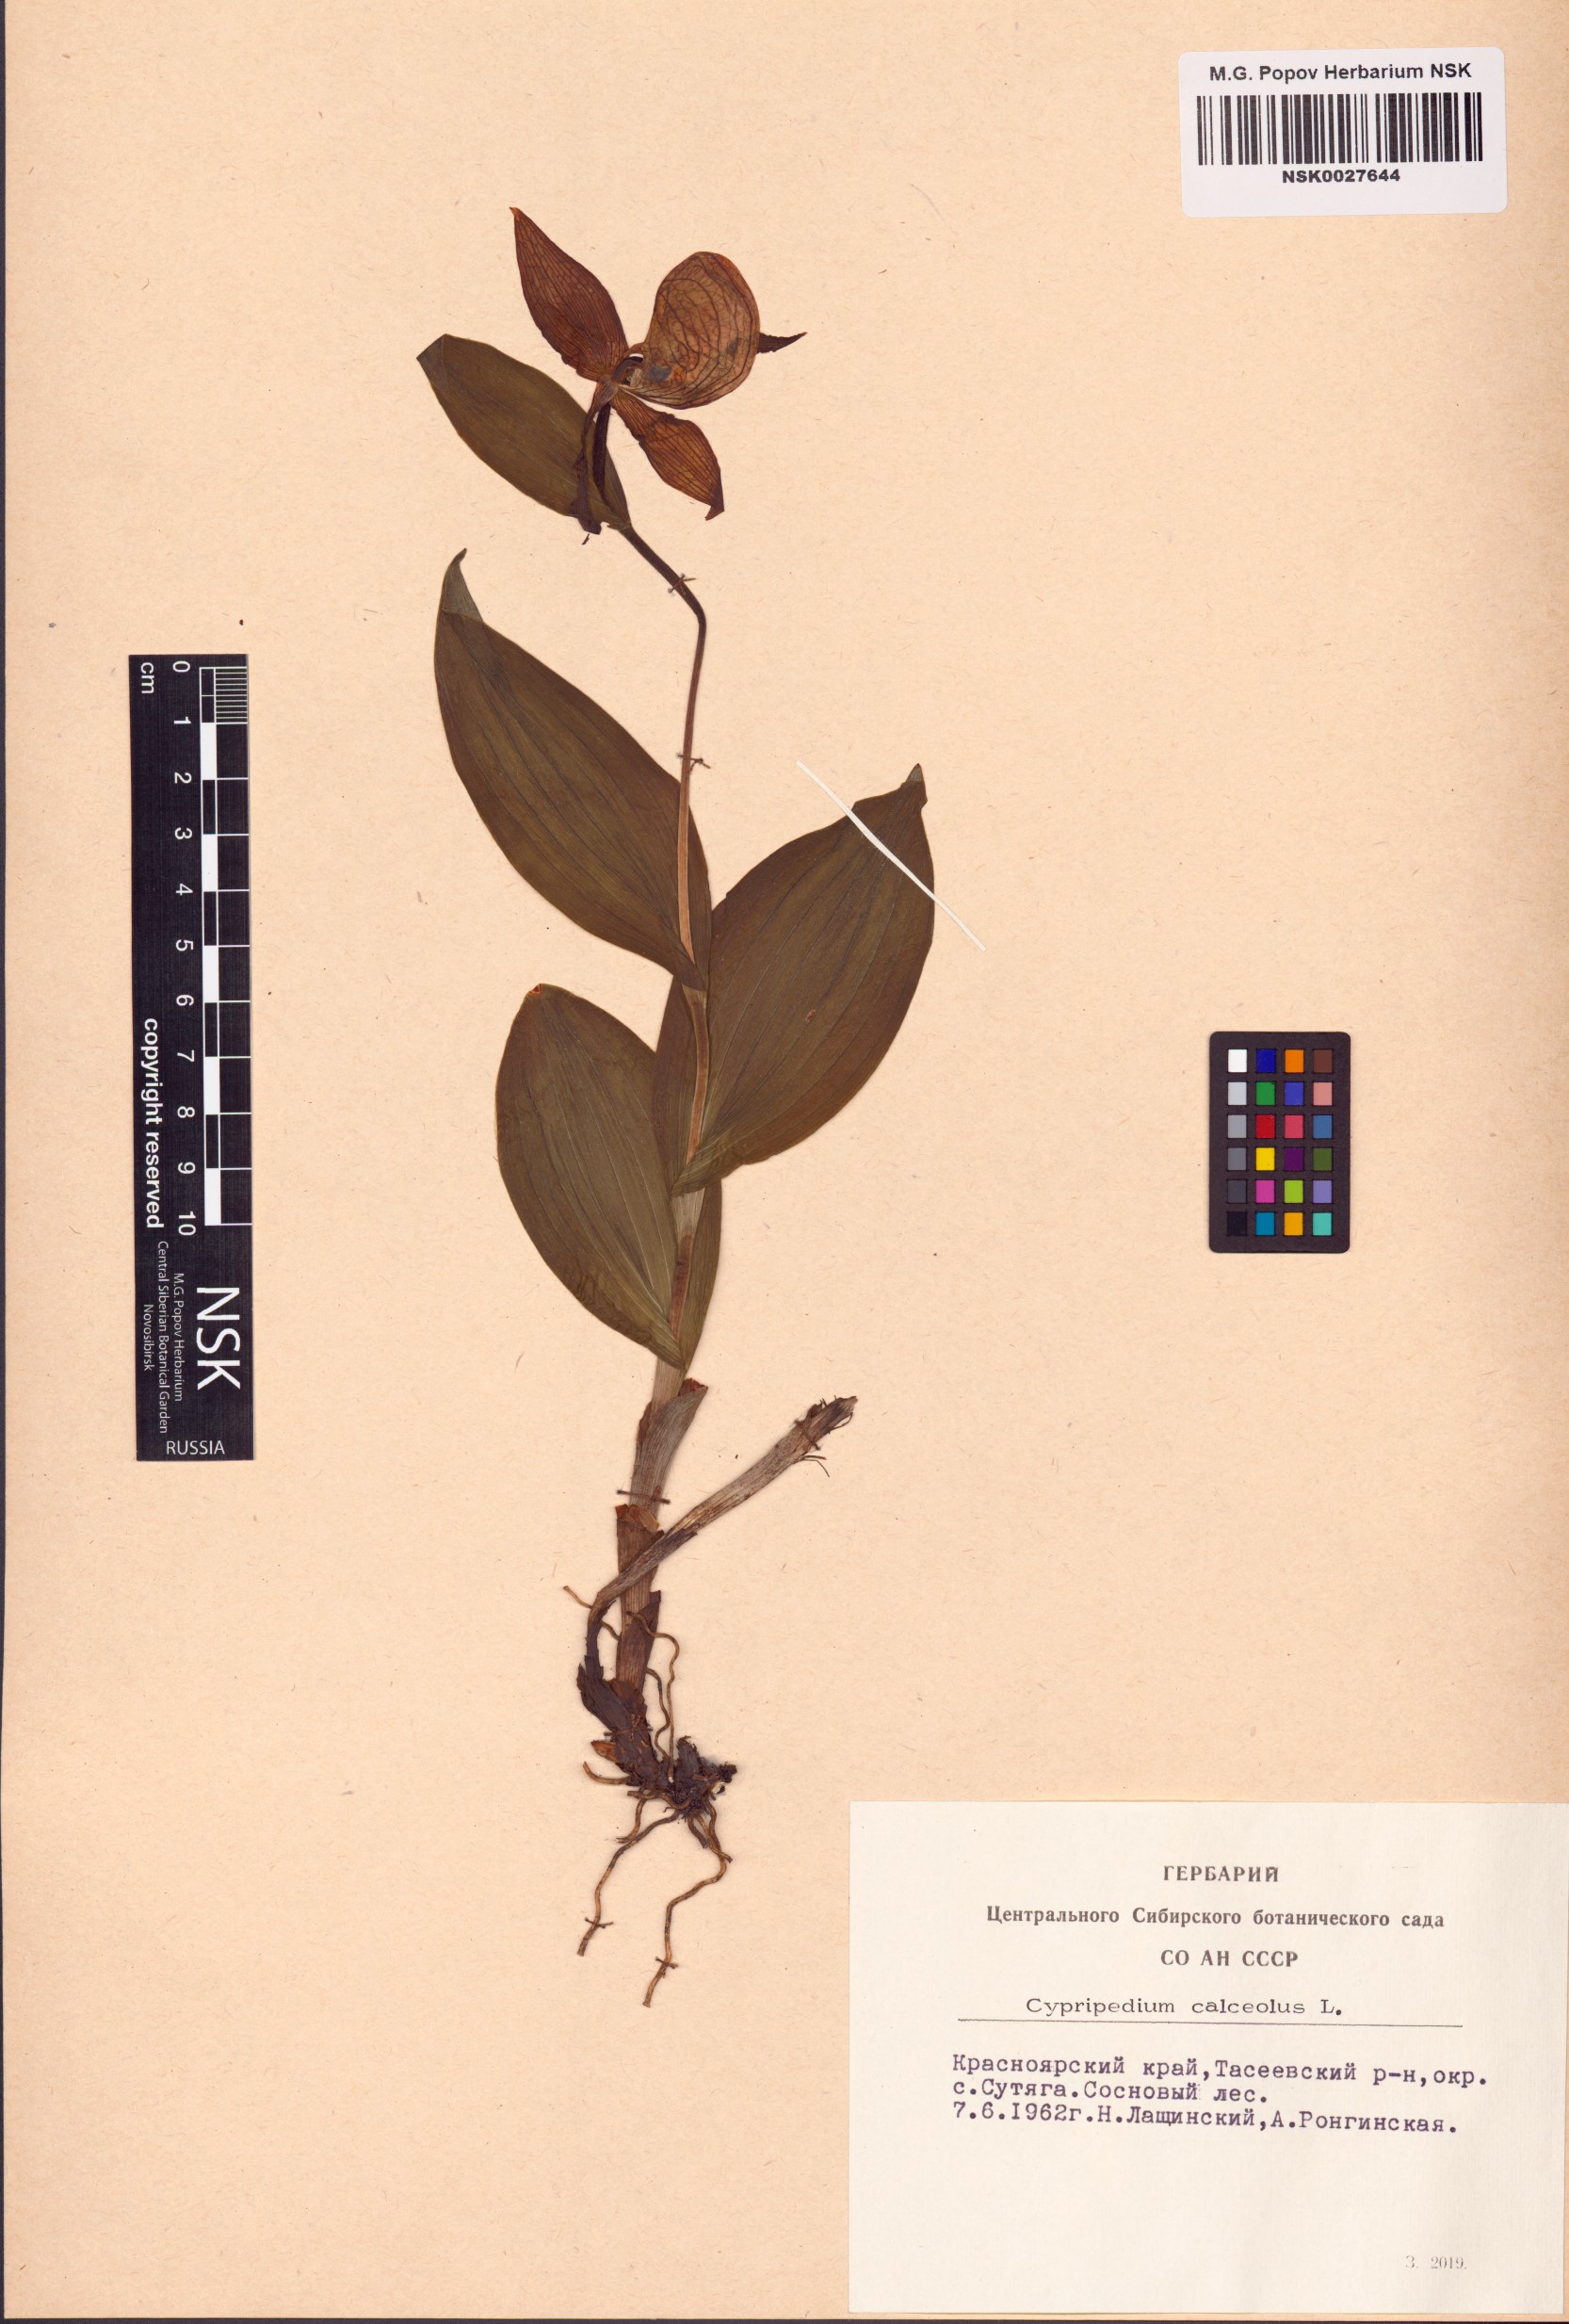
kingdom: Plantae
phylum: Tracheophyta
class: Liliopsida
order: Asparagales
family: Orchidaceae
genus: Cypripedium
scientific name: Cypripedium calceolus
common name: Lady's-slipper
